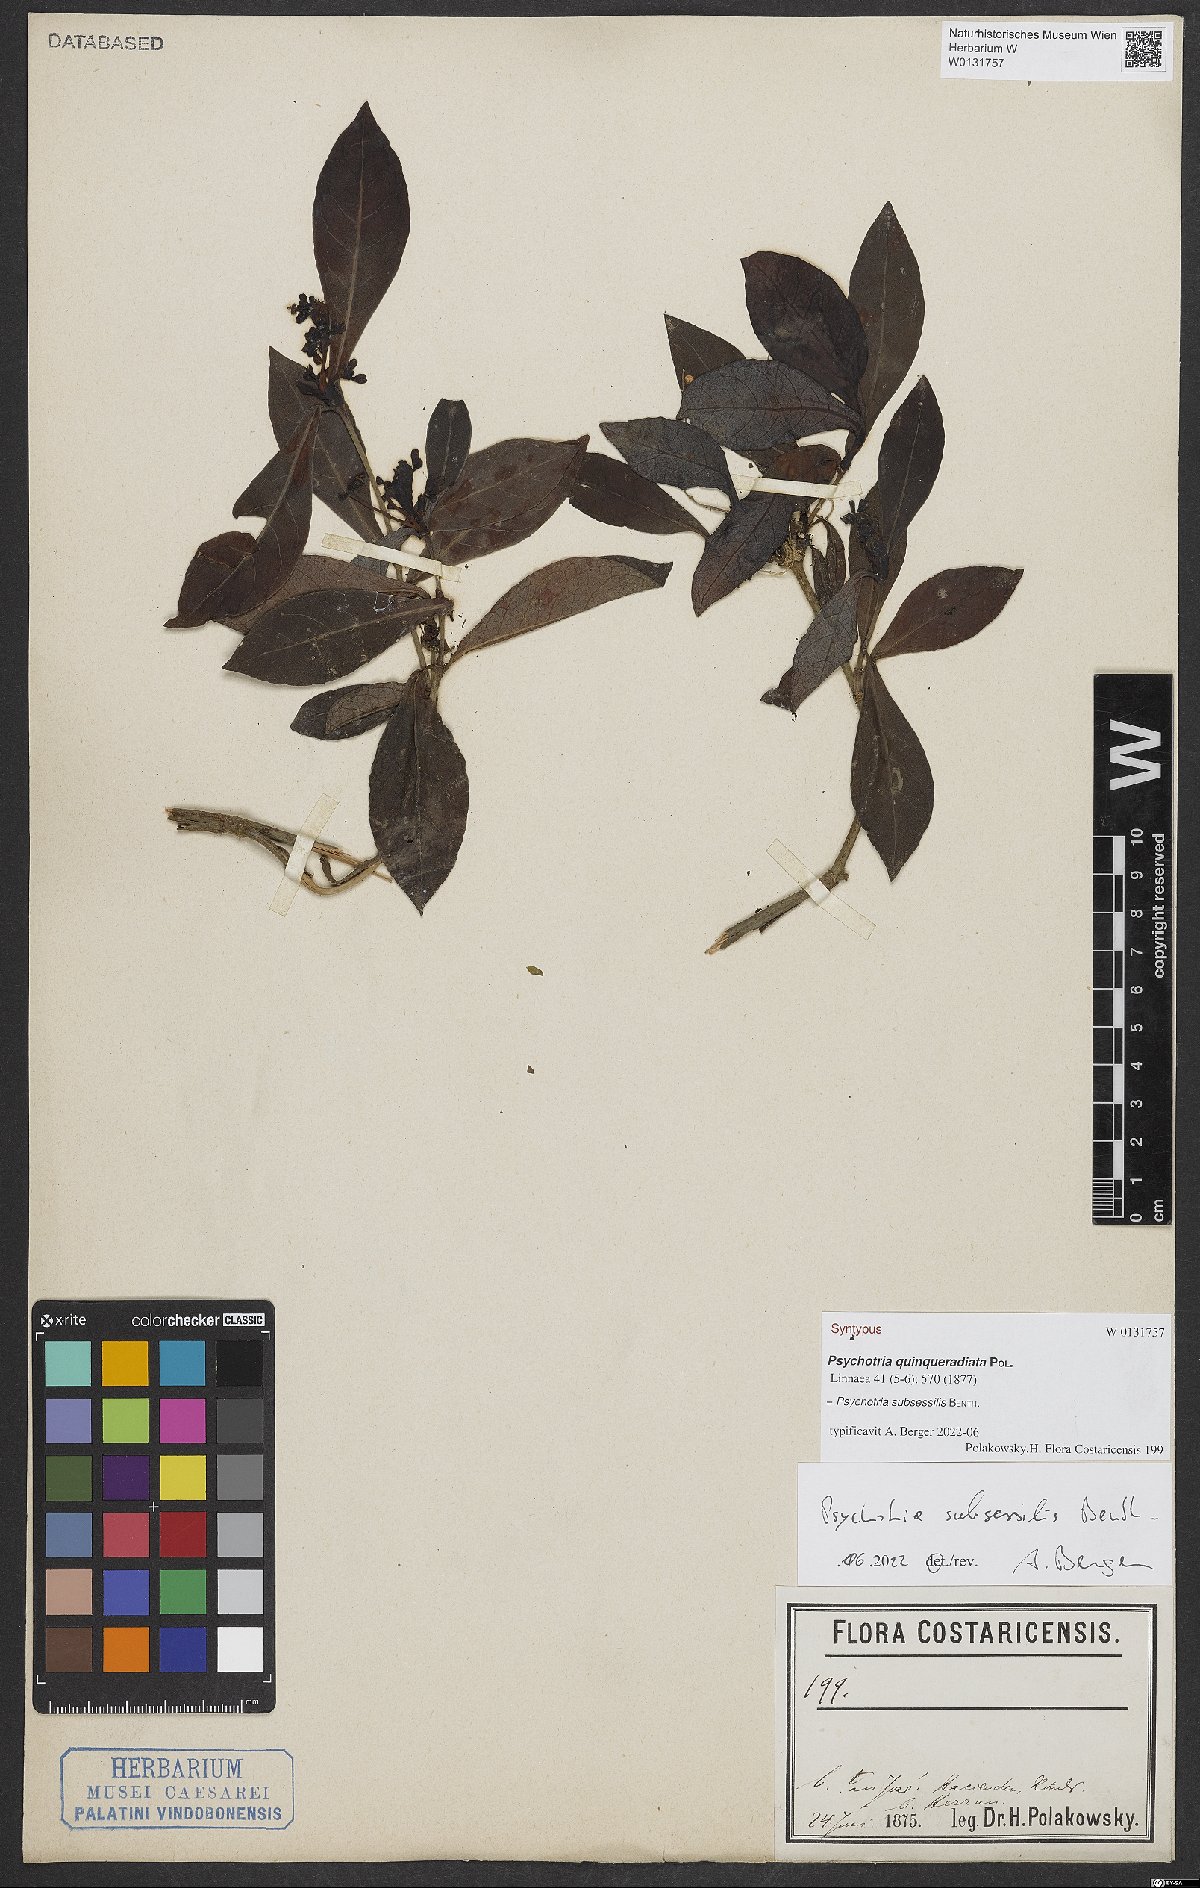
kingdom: Plantae
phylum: Tracheophyta
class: Magnoliopsida
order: Gentianales
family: Rubiaceae
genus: Psychotria
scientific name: Psychotria subsessilis
